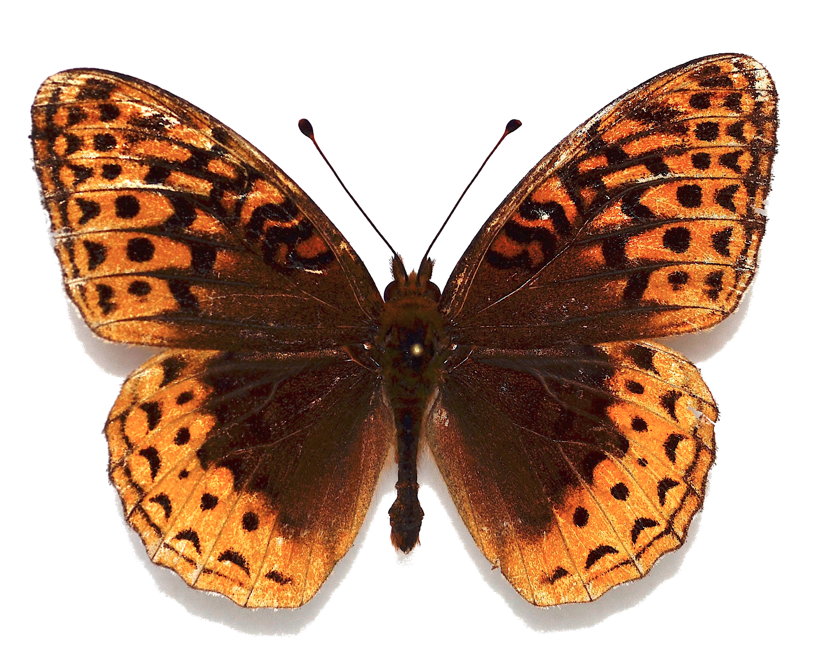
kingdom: Animalia
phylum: Arthropoda
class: Insecta
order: Lepidoptera
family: Nymphalidae
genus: Speyeria
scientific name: Speyeria cybele
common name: Great Spangled Fritillary
